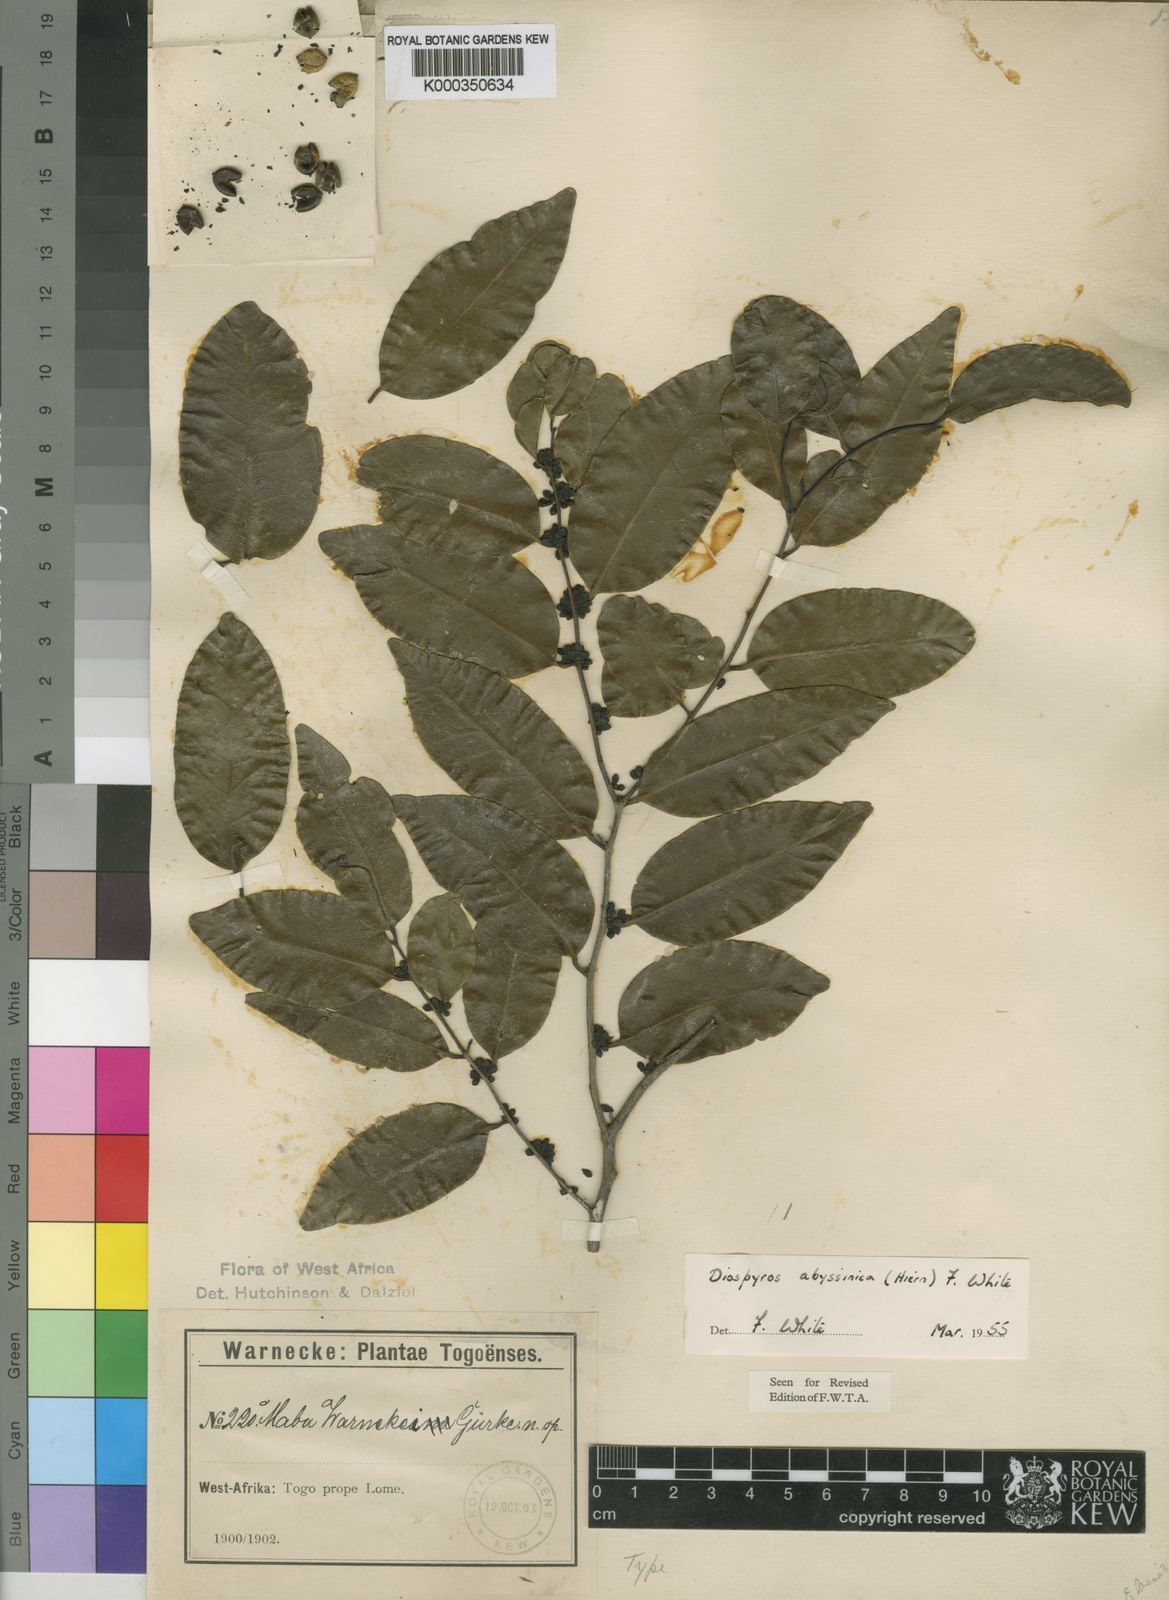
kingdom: Plantae
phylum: Tracheophyta
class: Magnoliopsida
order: Ericales
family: Ebenaceae
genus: Diospyros
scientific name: Diospyros abyssinica
